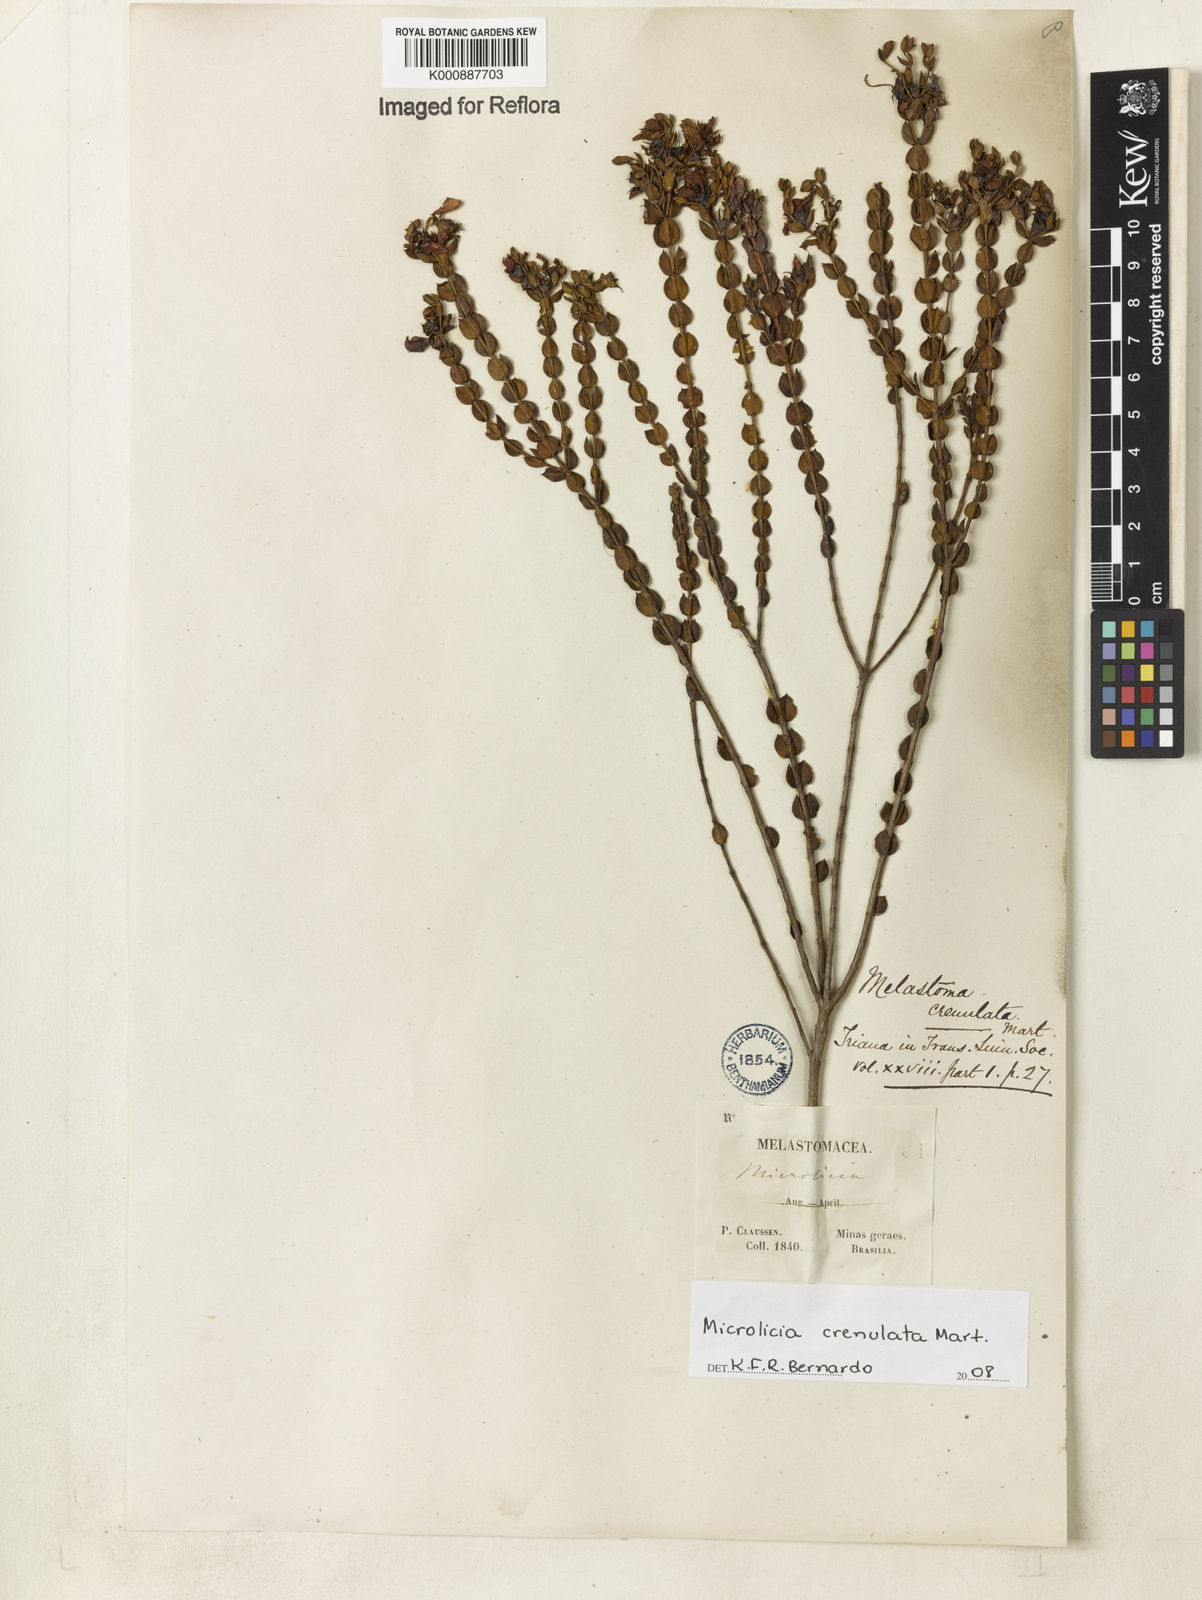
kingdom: Plantae
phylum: Tracheophyta
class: Magnoliopsida
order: Myrtales
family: Melastomataceae
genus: Microlicia
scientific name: Microlicia crenulata
